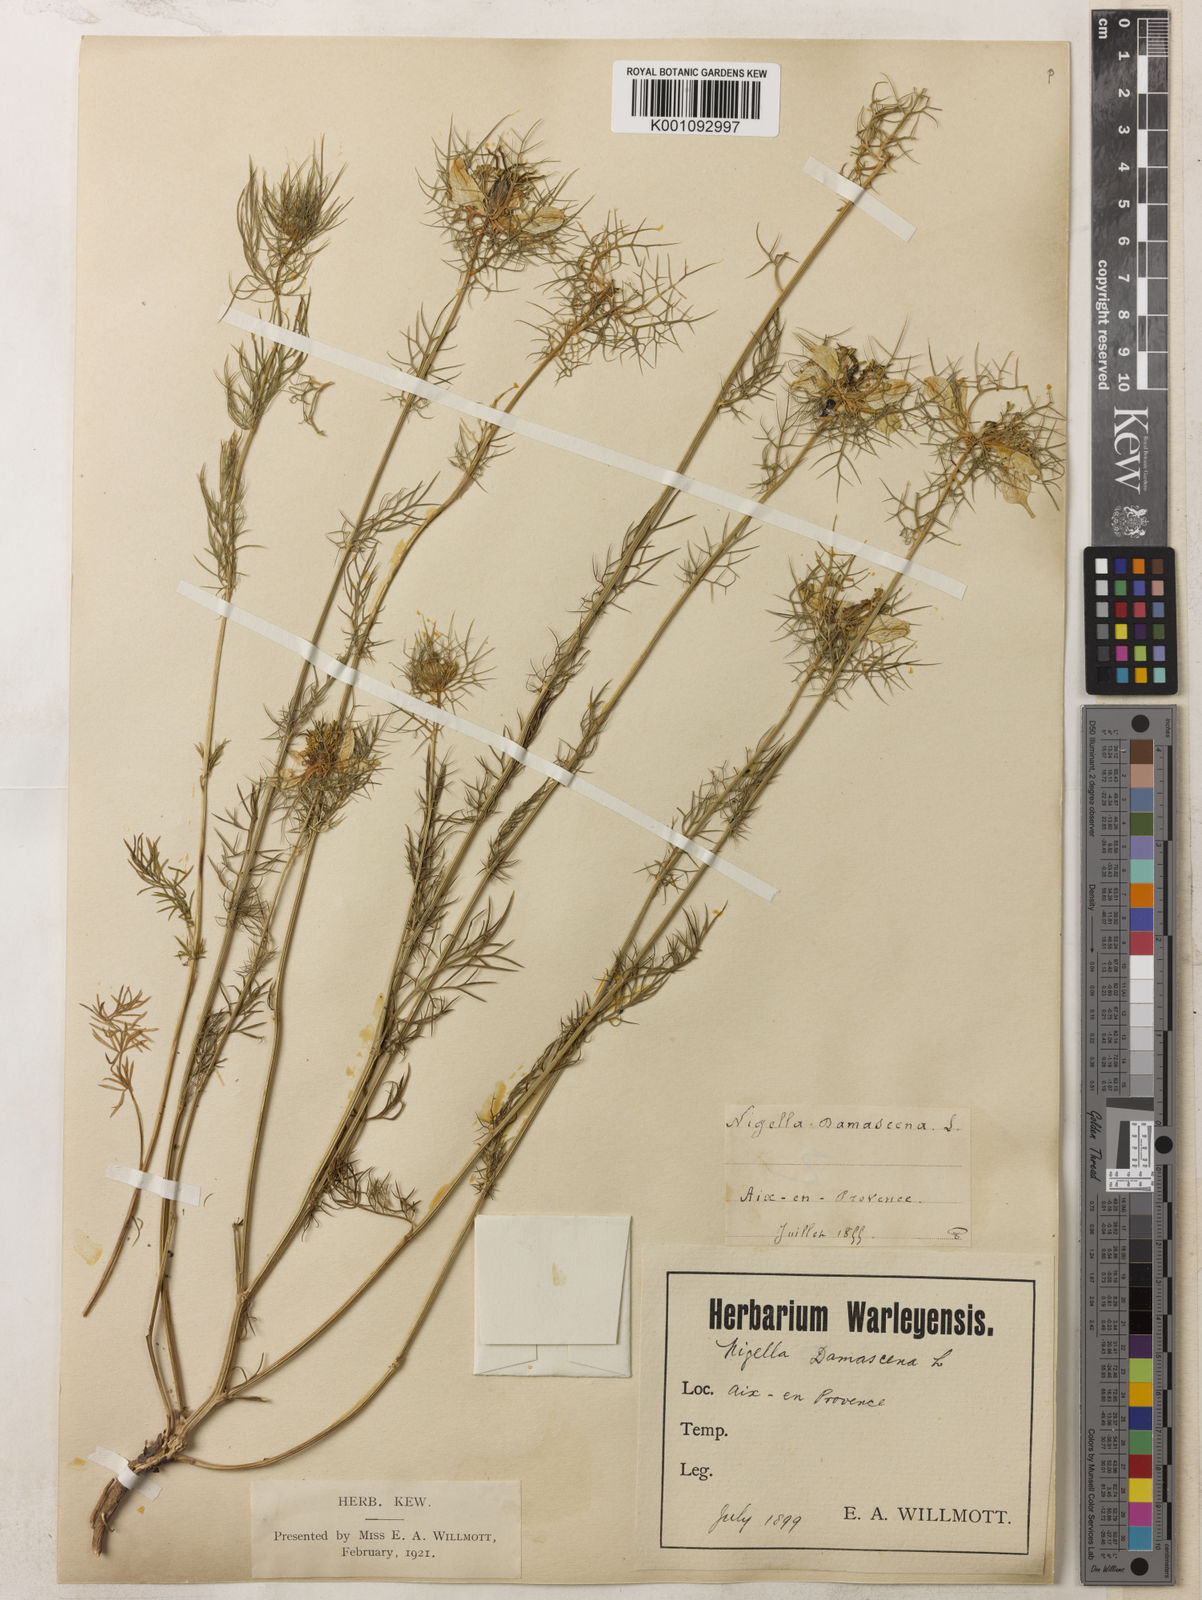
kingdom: Plantae
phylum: Tracheophyta
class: Magnoliopsida
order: Ranunculales
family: Ranunculaceae
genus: Nigella
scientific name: Nigella damascena
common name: Love-in-a-mist
